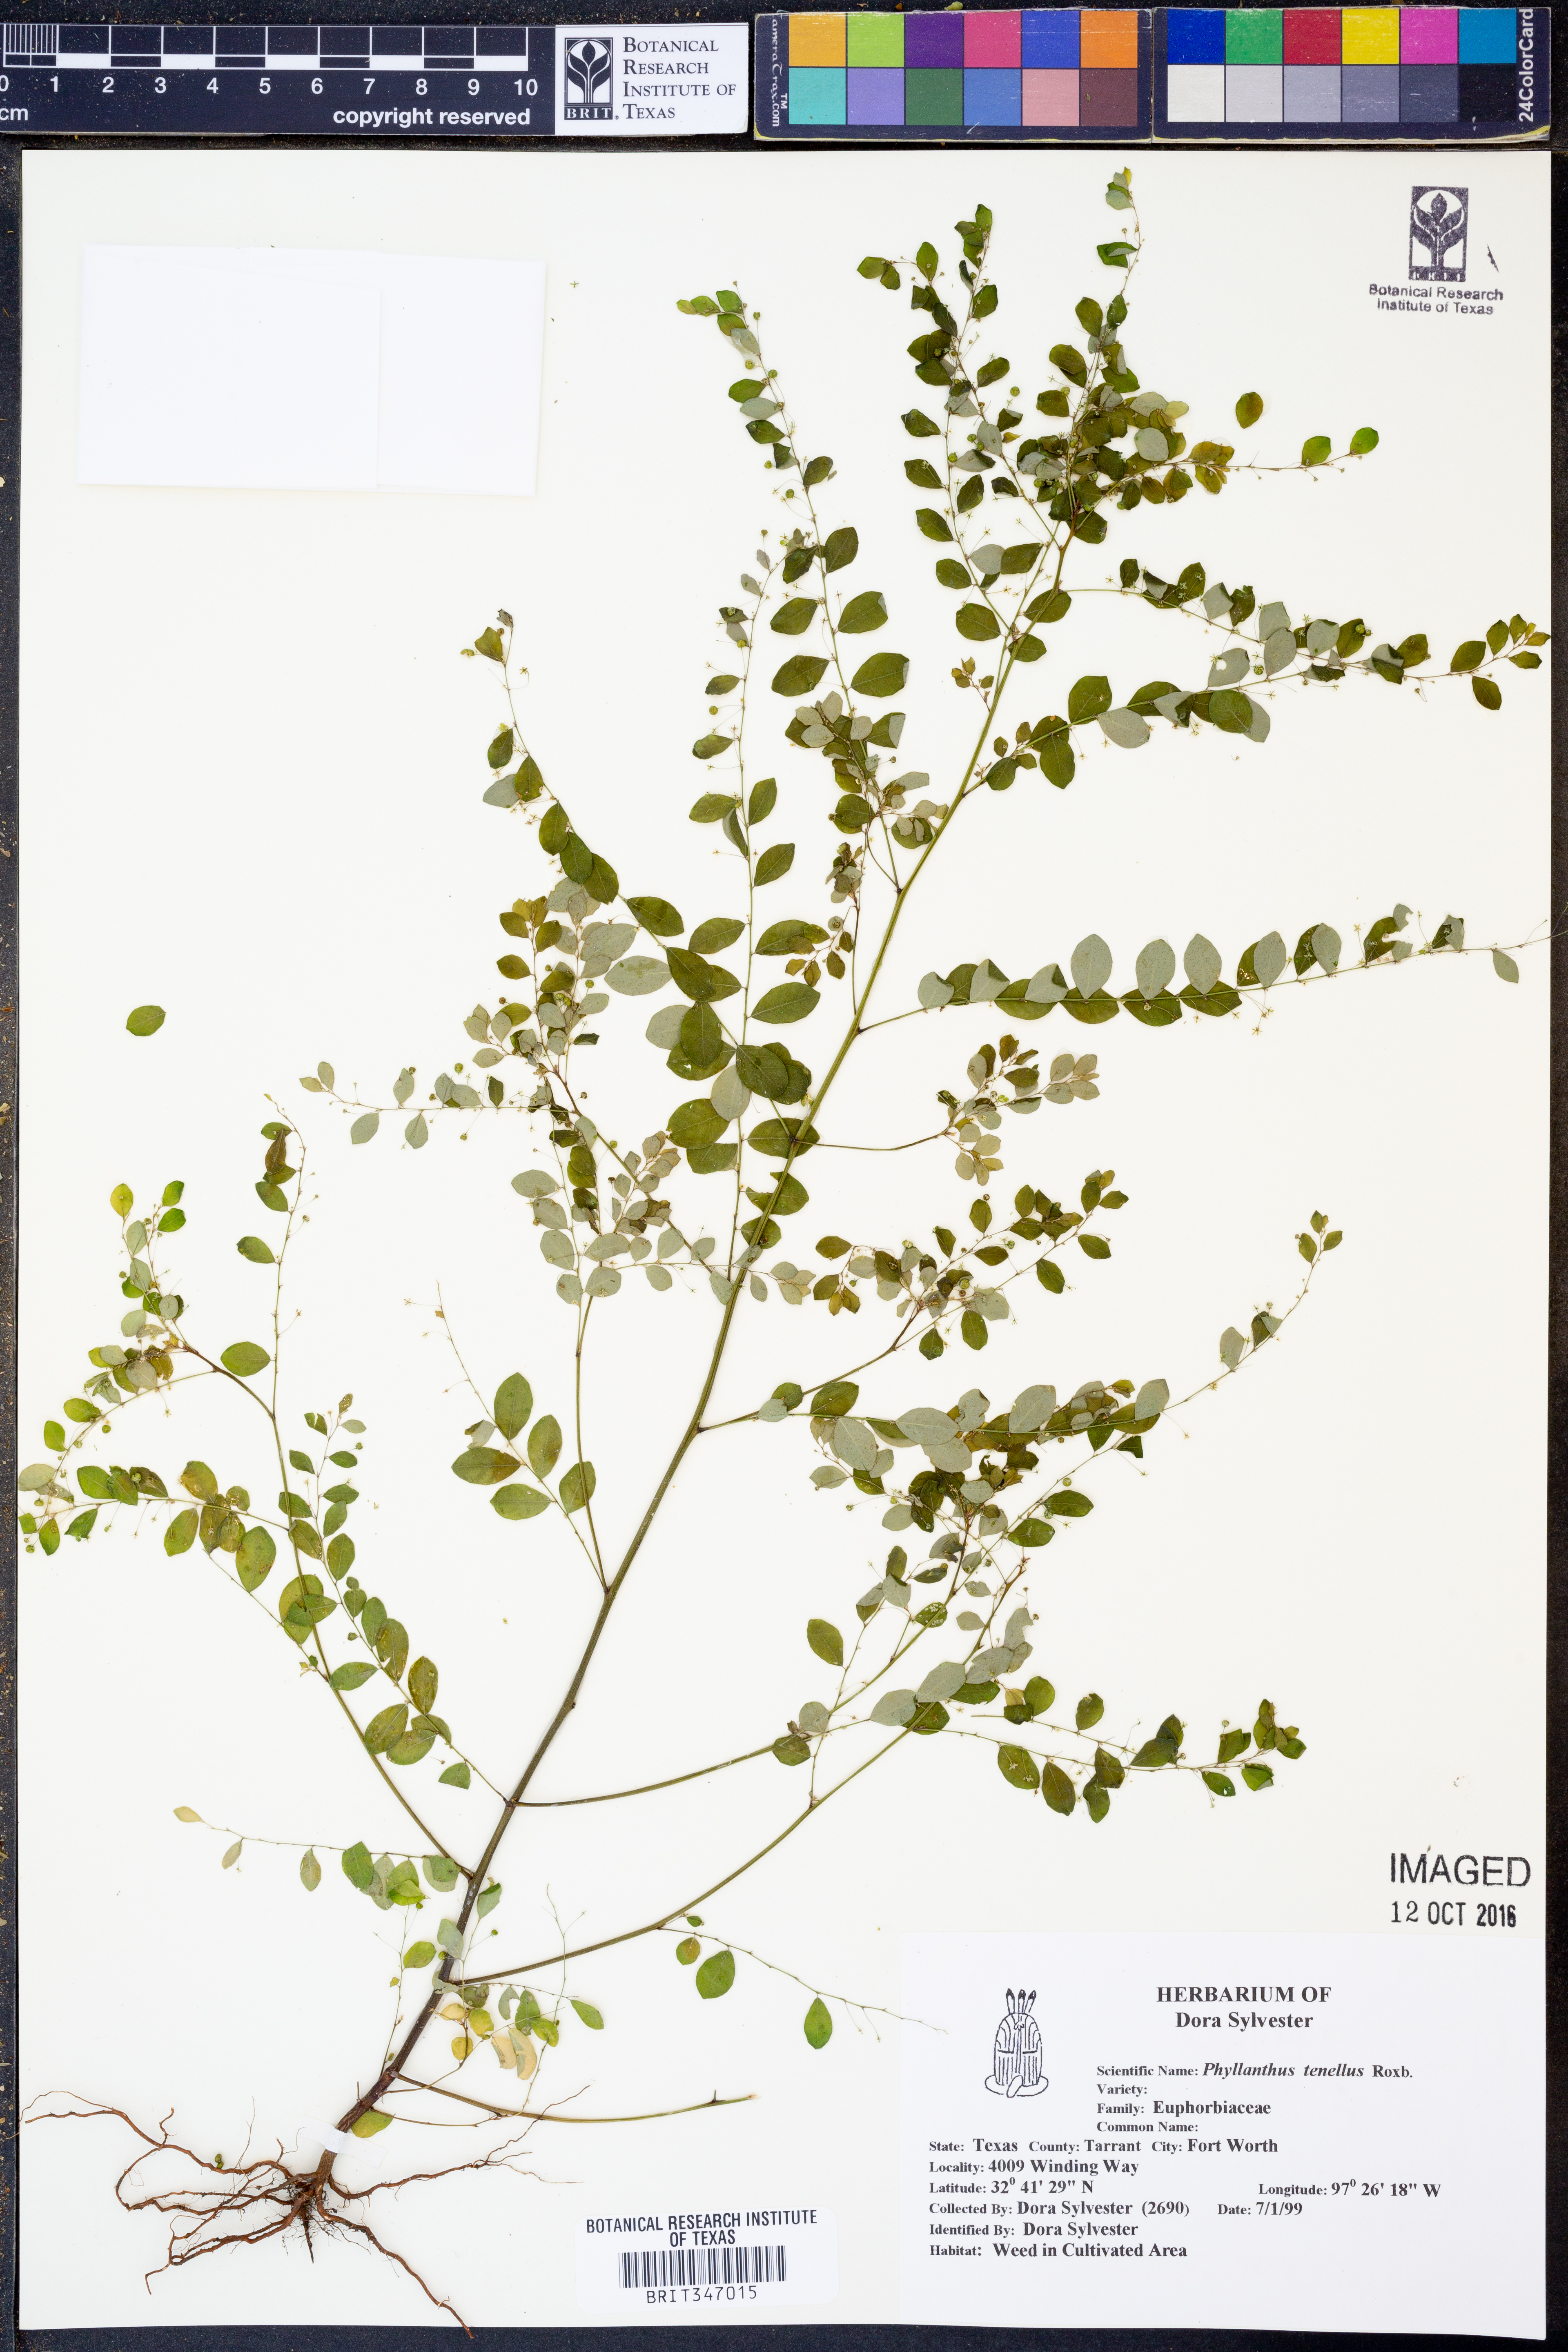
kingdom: Plantae
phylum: Tracheophyta
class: Magnoliopsida
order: Malpighiales
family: Phyllanthaceae
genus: Phyllanthus
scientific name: Phyllanthus tenellus
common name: Mascarene island leaf-flower
